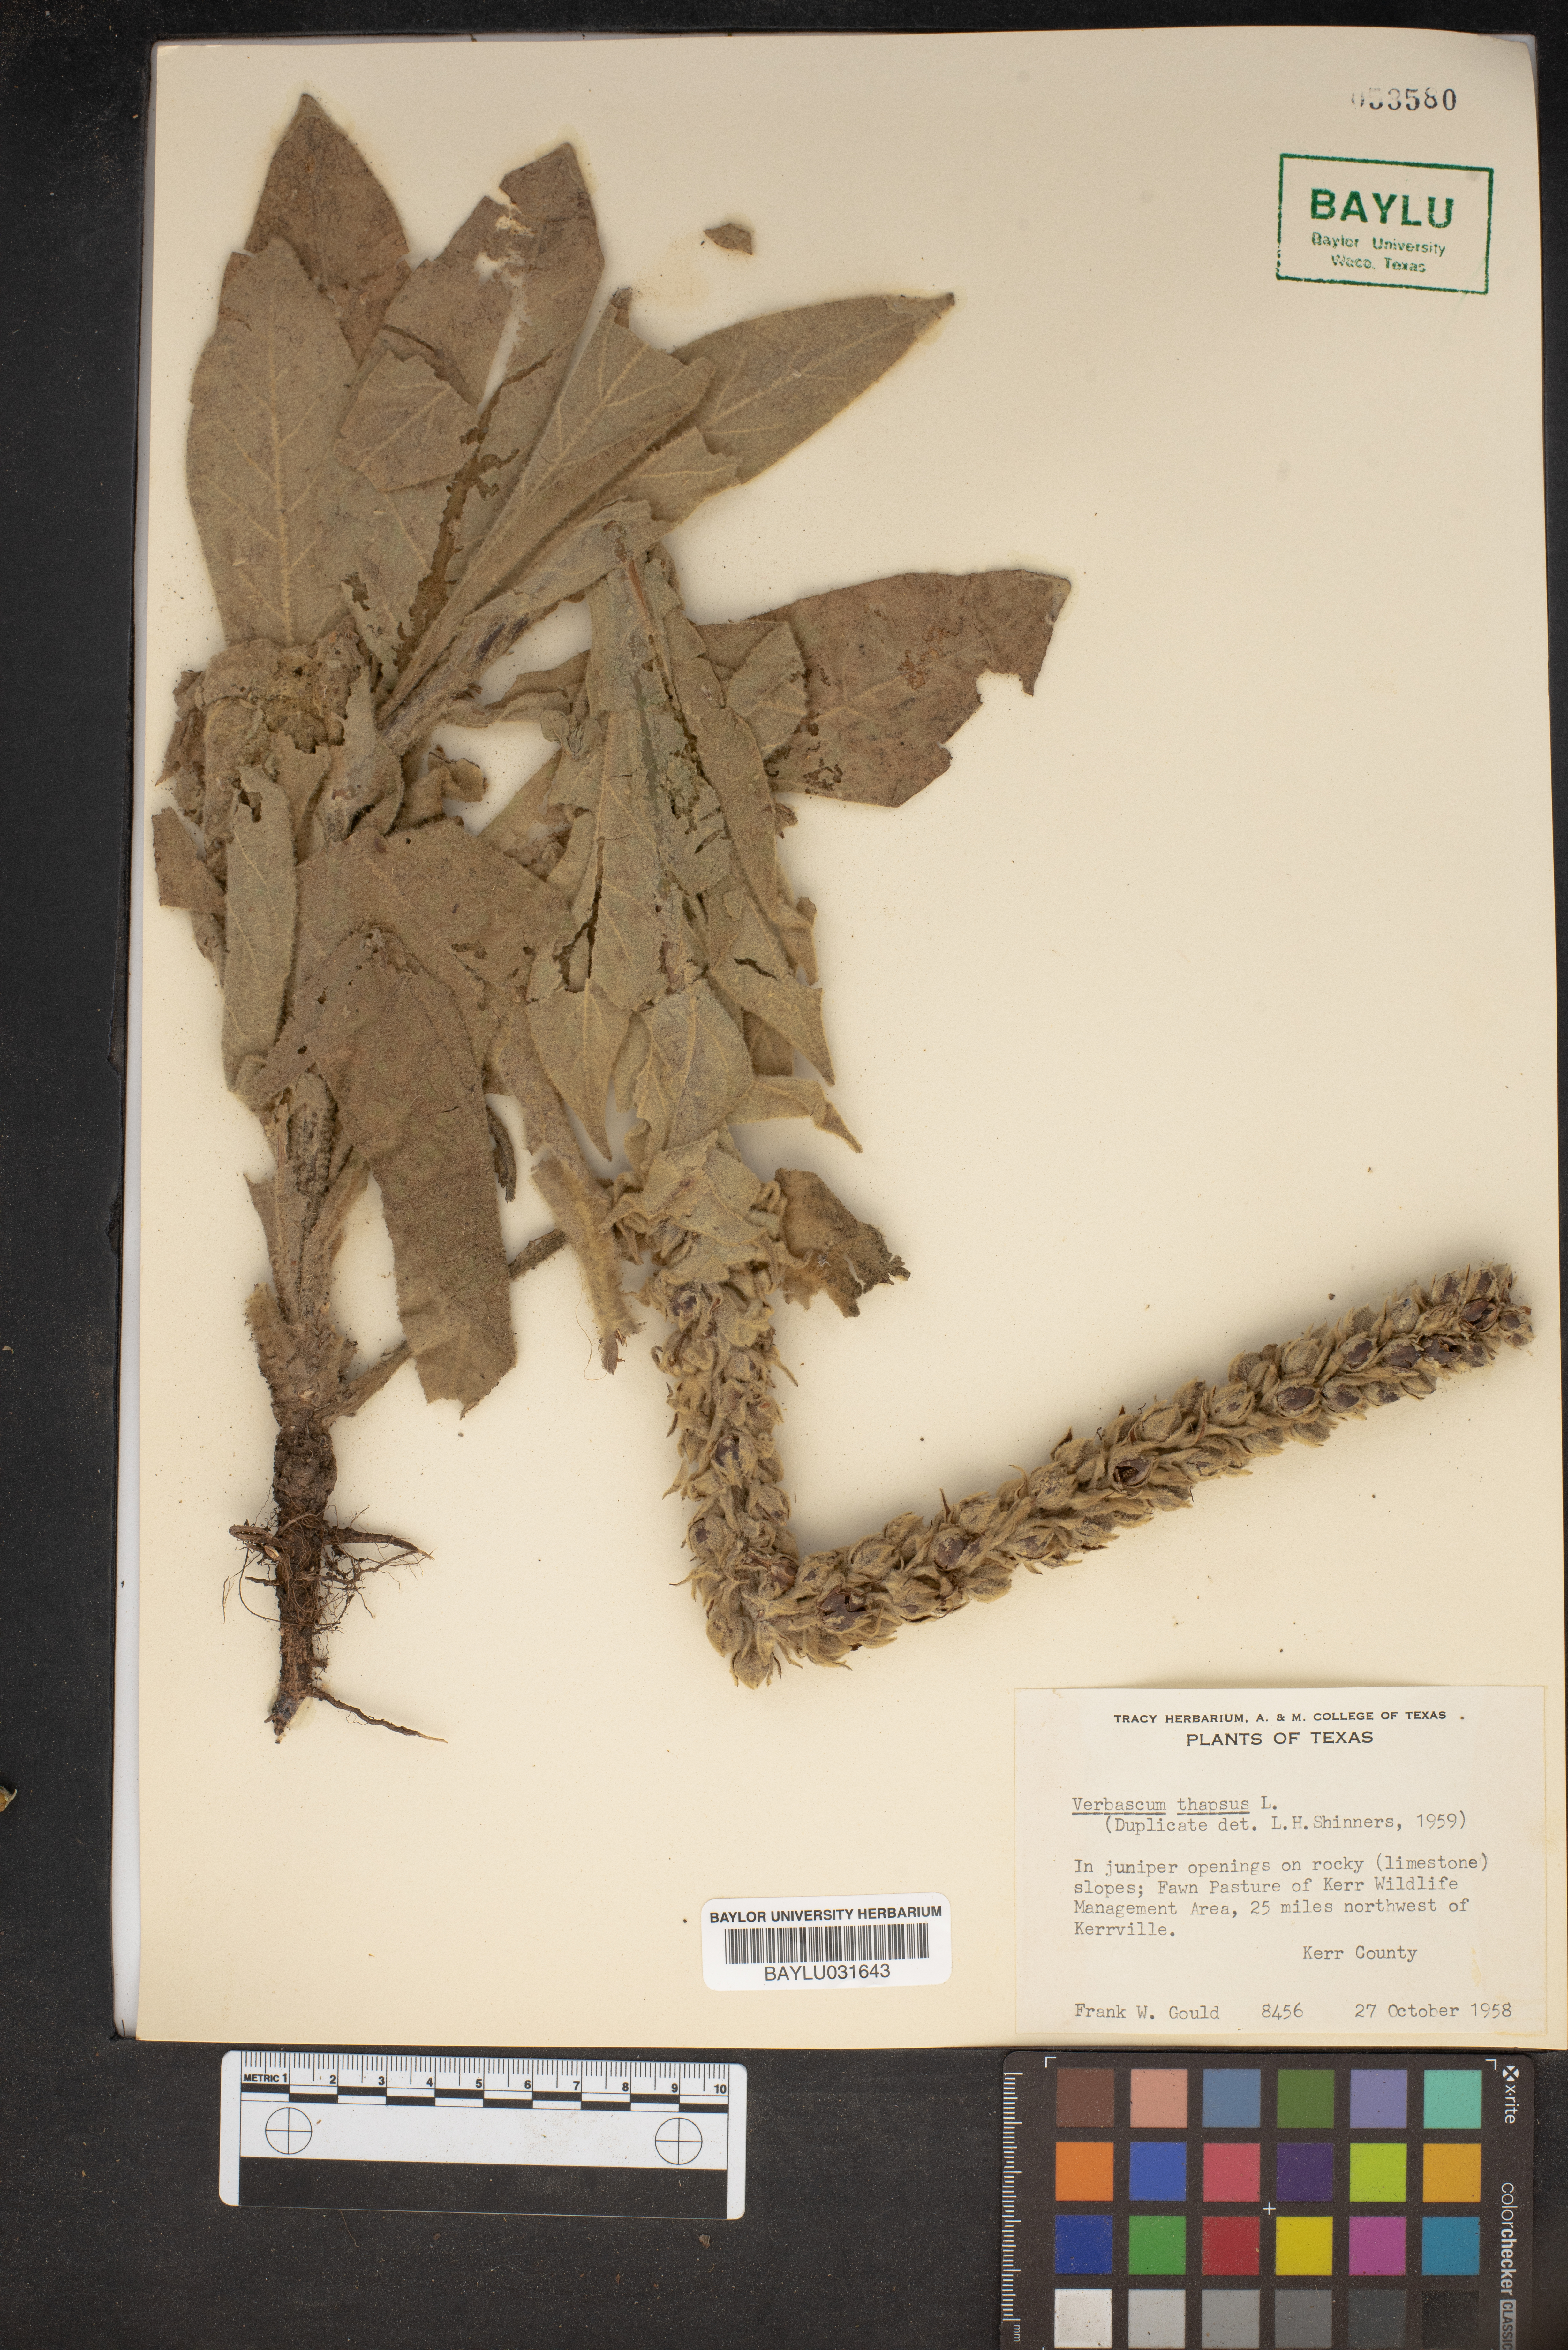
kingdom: Plantae
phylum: Tracheophyta
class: Magnoliopsida
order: Lamiales
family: Scrophulariaceae
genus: Verbascum
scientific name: Verbascum thapsus
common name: Common mullein
